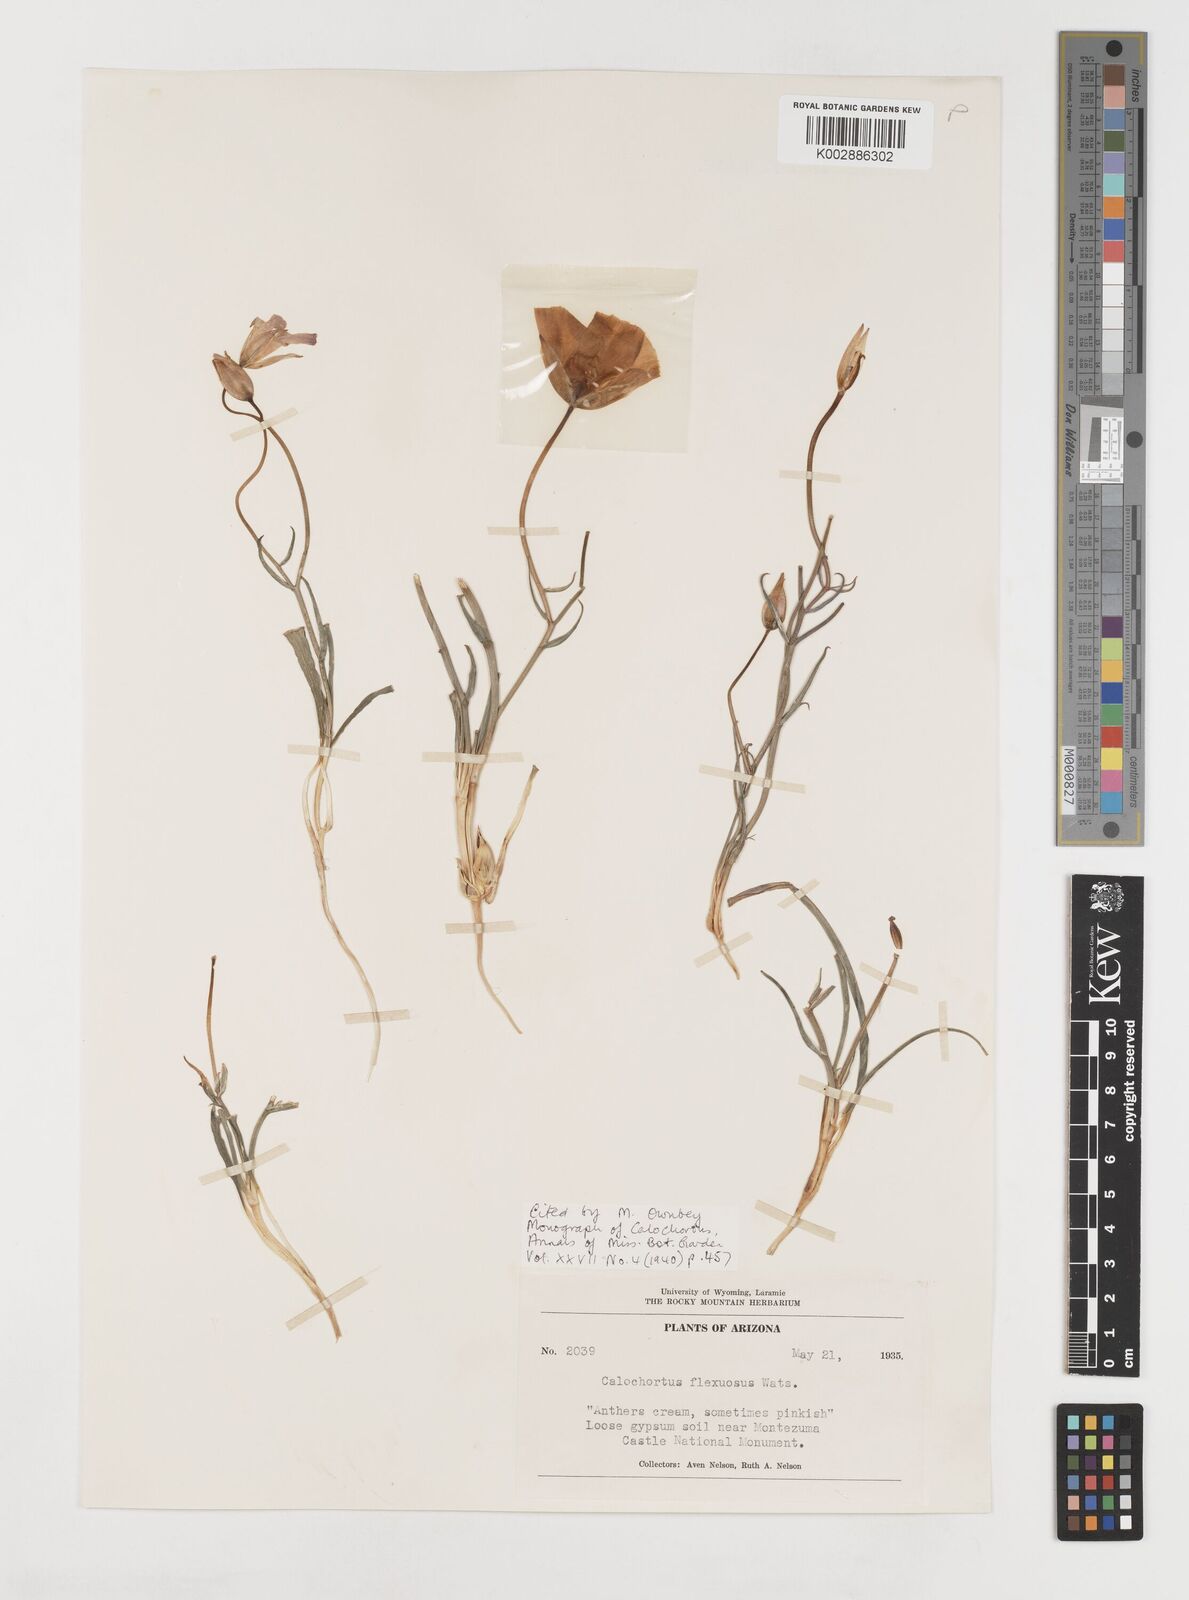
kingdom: Plantae
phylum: Tracheophyta
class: Liliopsida
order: Liliales
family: Liliaceae
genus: Calochortus
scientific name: Calochortus flexuosus
